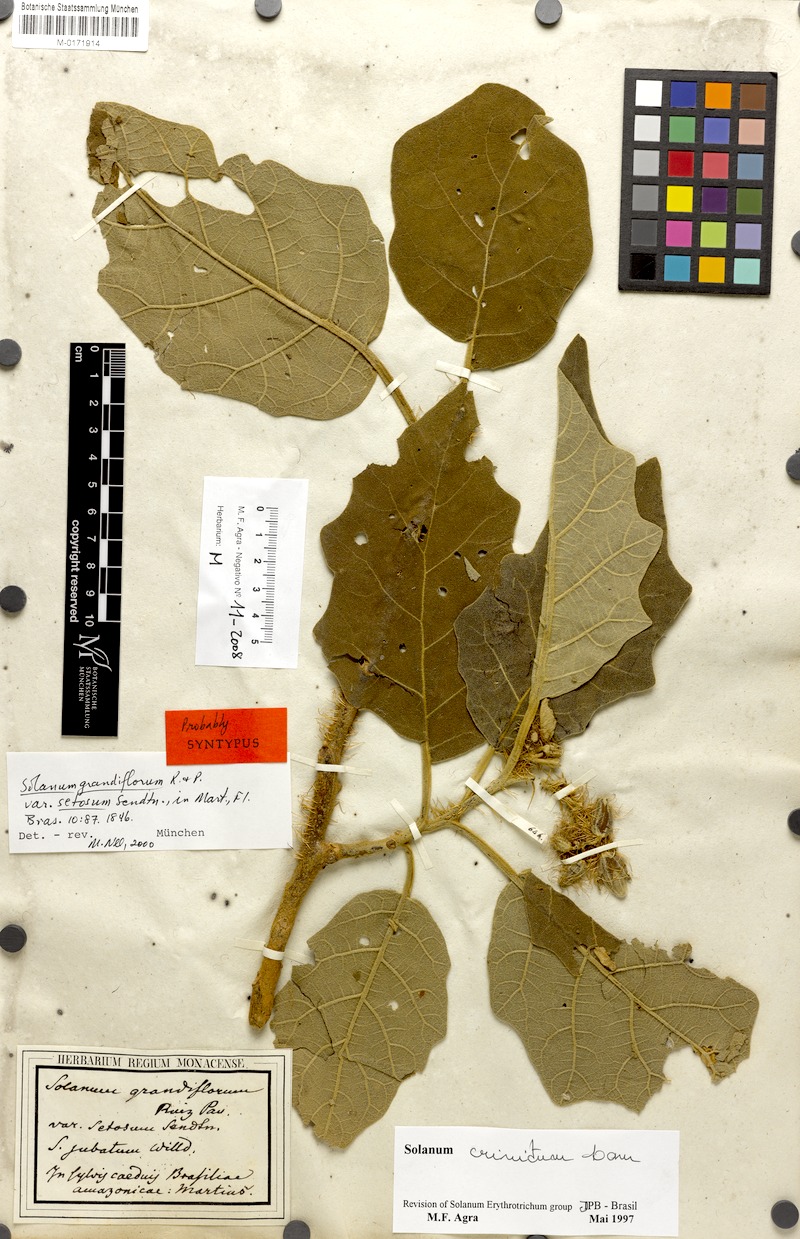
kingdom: Plantae
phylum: Tracheophyta
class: Magnoliopsida
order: Solanales
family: Solanaceae
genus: Solanum
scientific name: Solanum crinitum
